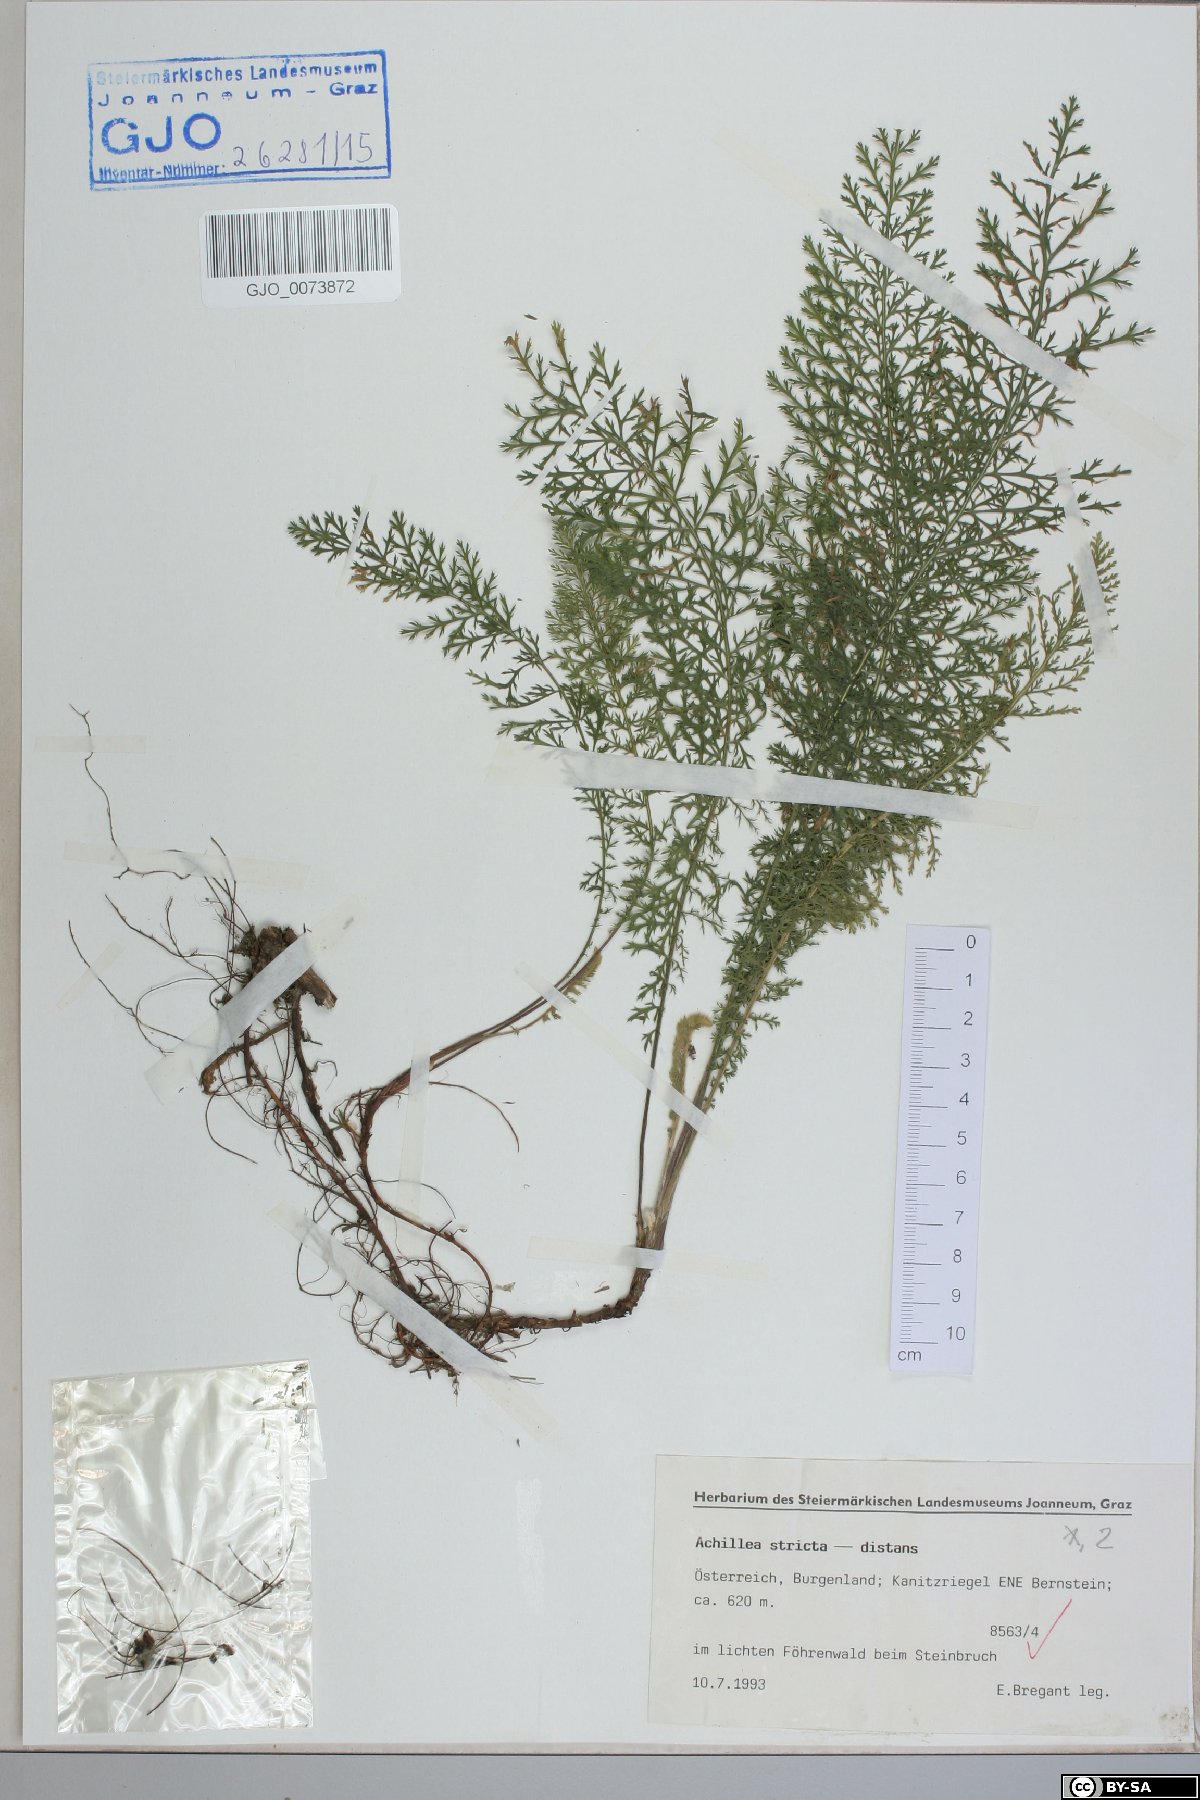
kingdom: Plantae
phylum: Tracheophyta
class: Magnoliopsida
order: Asterales
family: Asteraceae
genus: Achillea
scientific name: Achillea distans
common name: Tall yarrow
